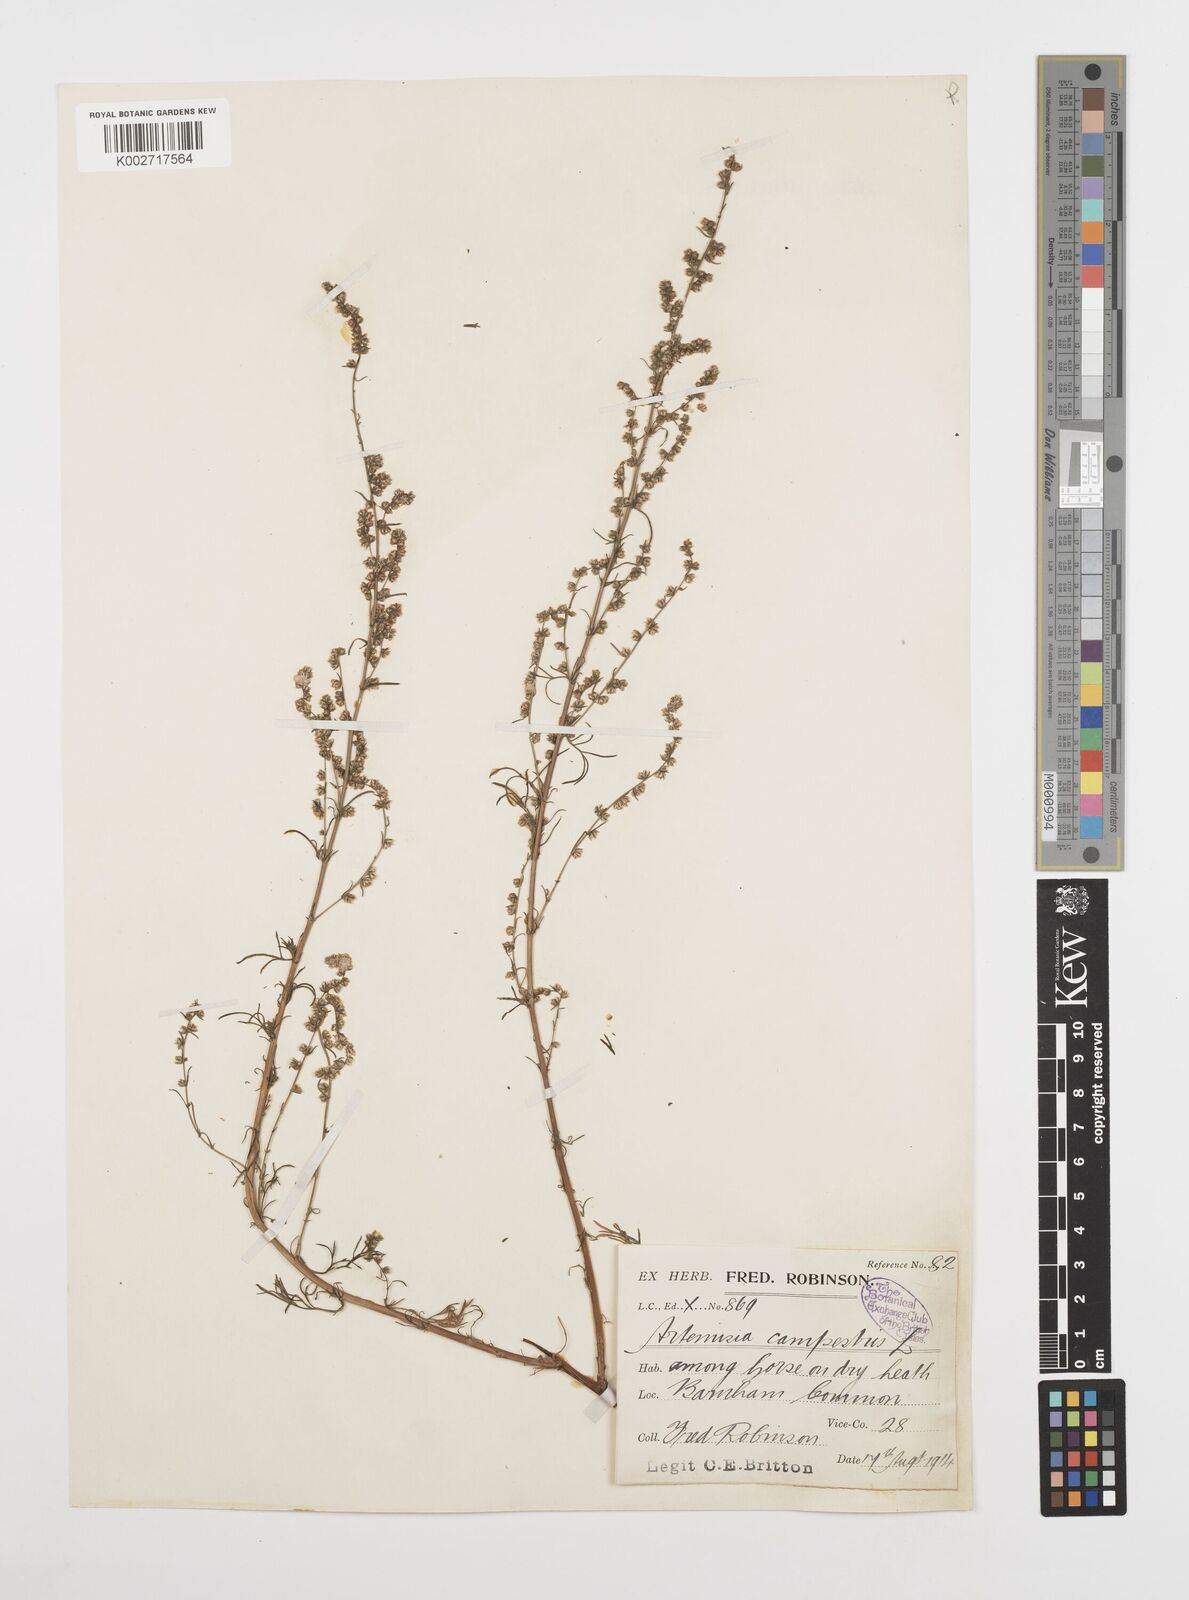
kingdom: Plantae
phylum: Tracheophyta
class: Magnoliopsida
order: Asterales
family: Asteraceae
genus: Artemisia
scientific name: Artemisia campestris
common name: Field wormwood
